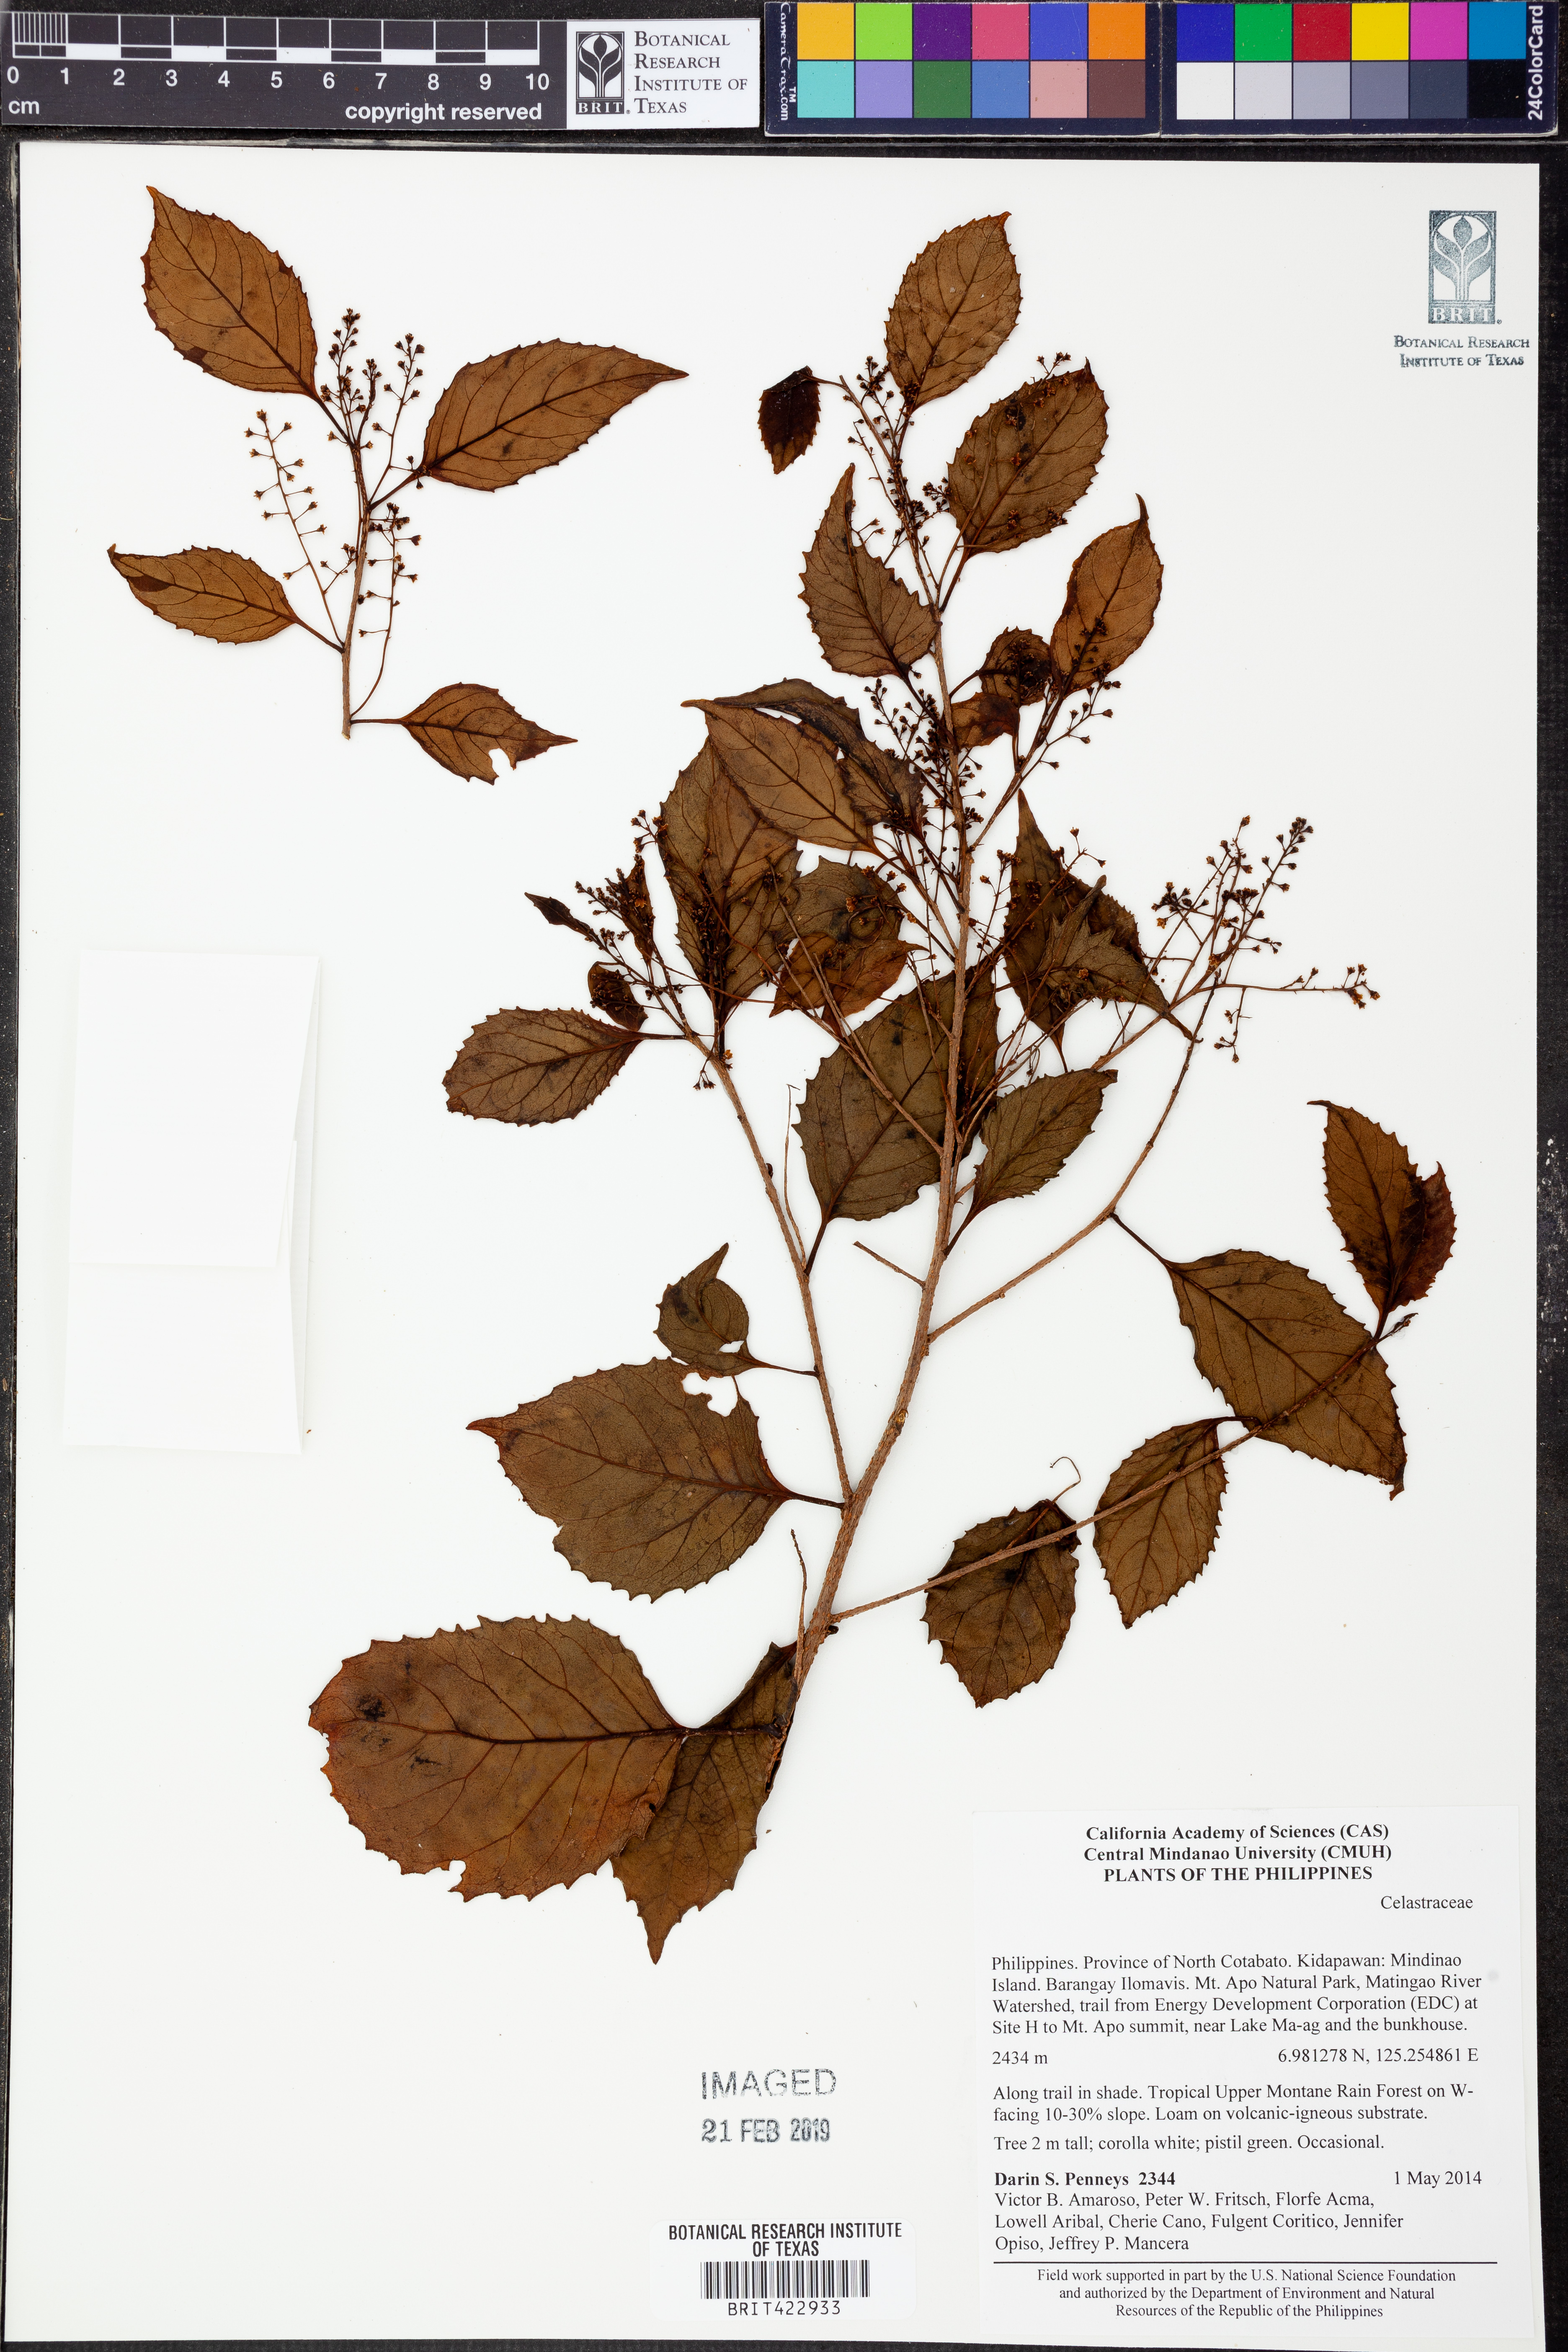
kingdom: Plantae
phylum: Tracheophyta
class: Magnoliopsida
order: Celastrales
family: Celastraceae
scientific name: Celastraceae
